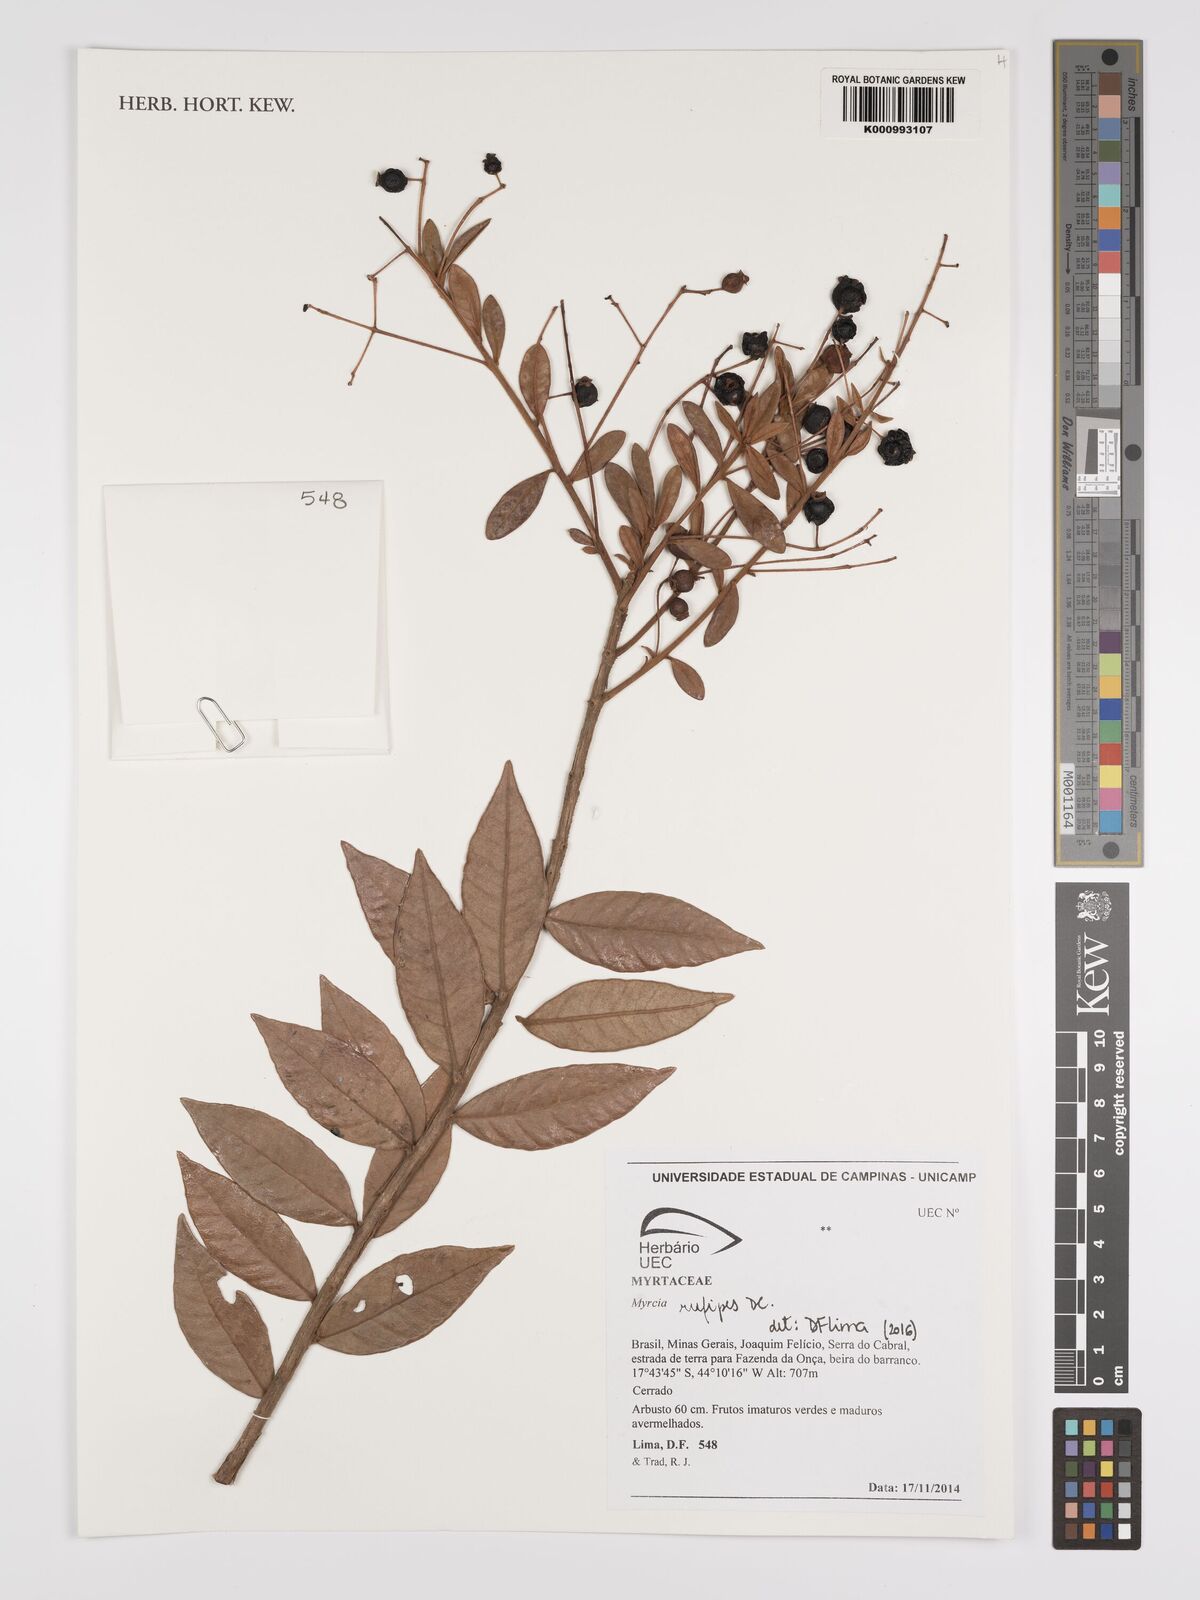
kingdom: Plantae
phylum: Tracheophyta
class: Magnoliopsida
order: Myrtales
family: Myrtaceae
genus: Myrcia
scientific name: Myrcia rufipes
